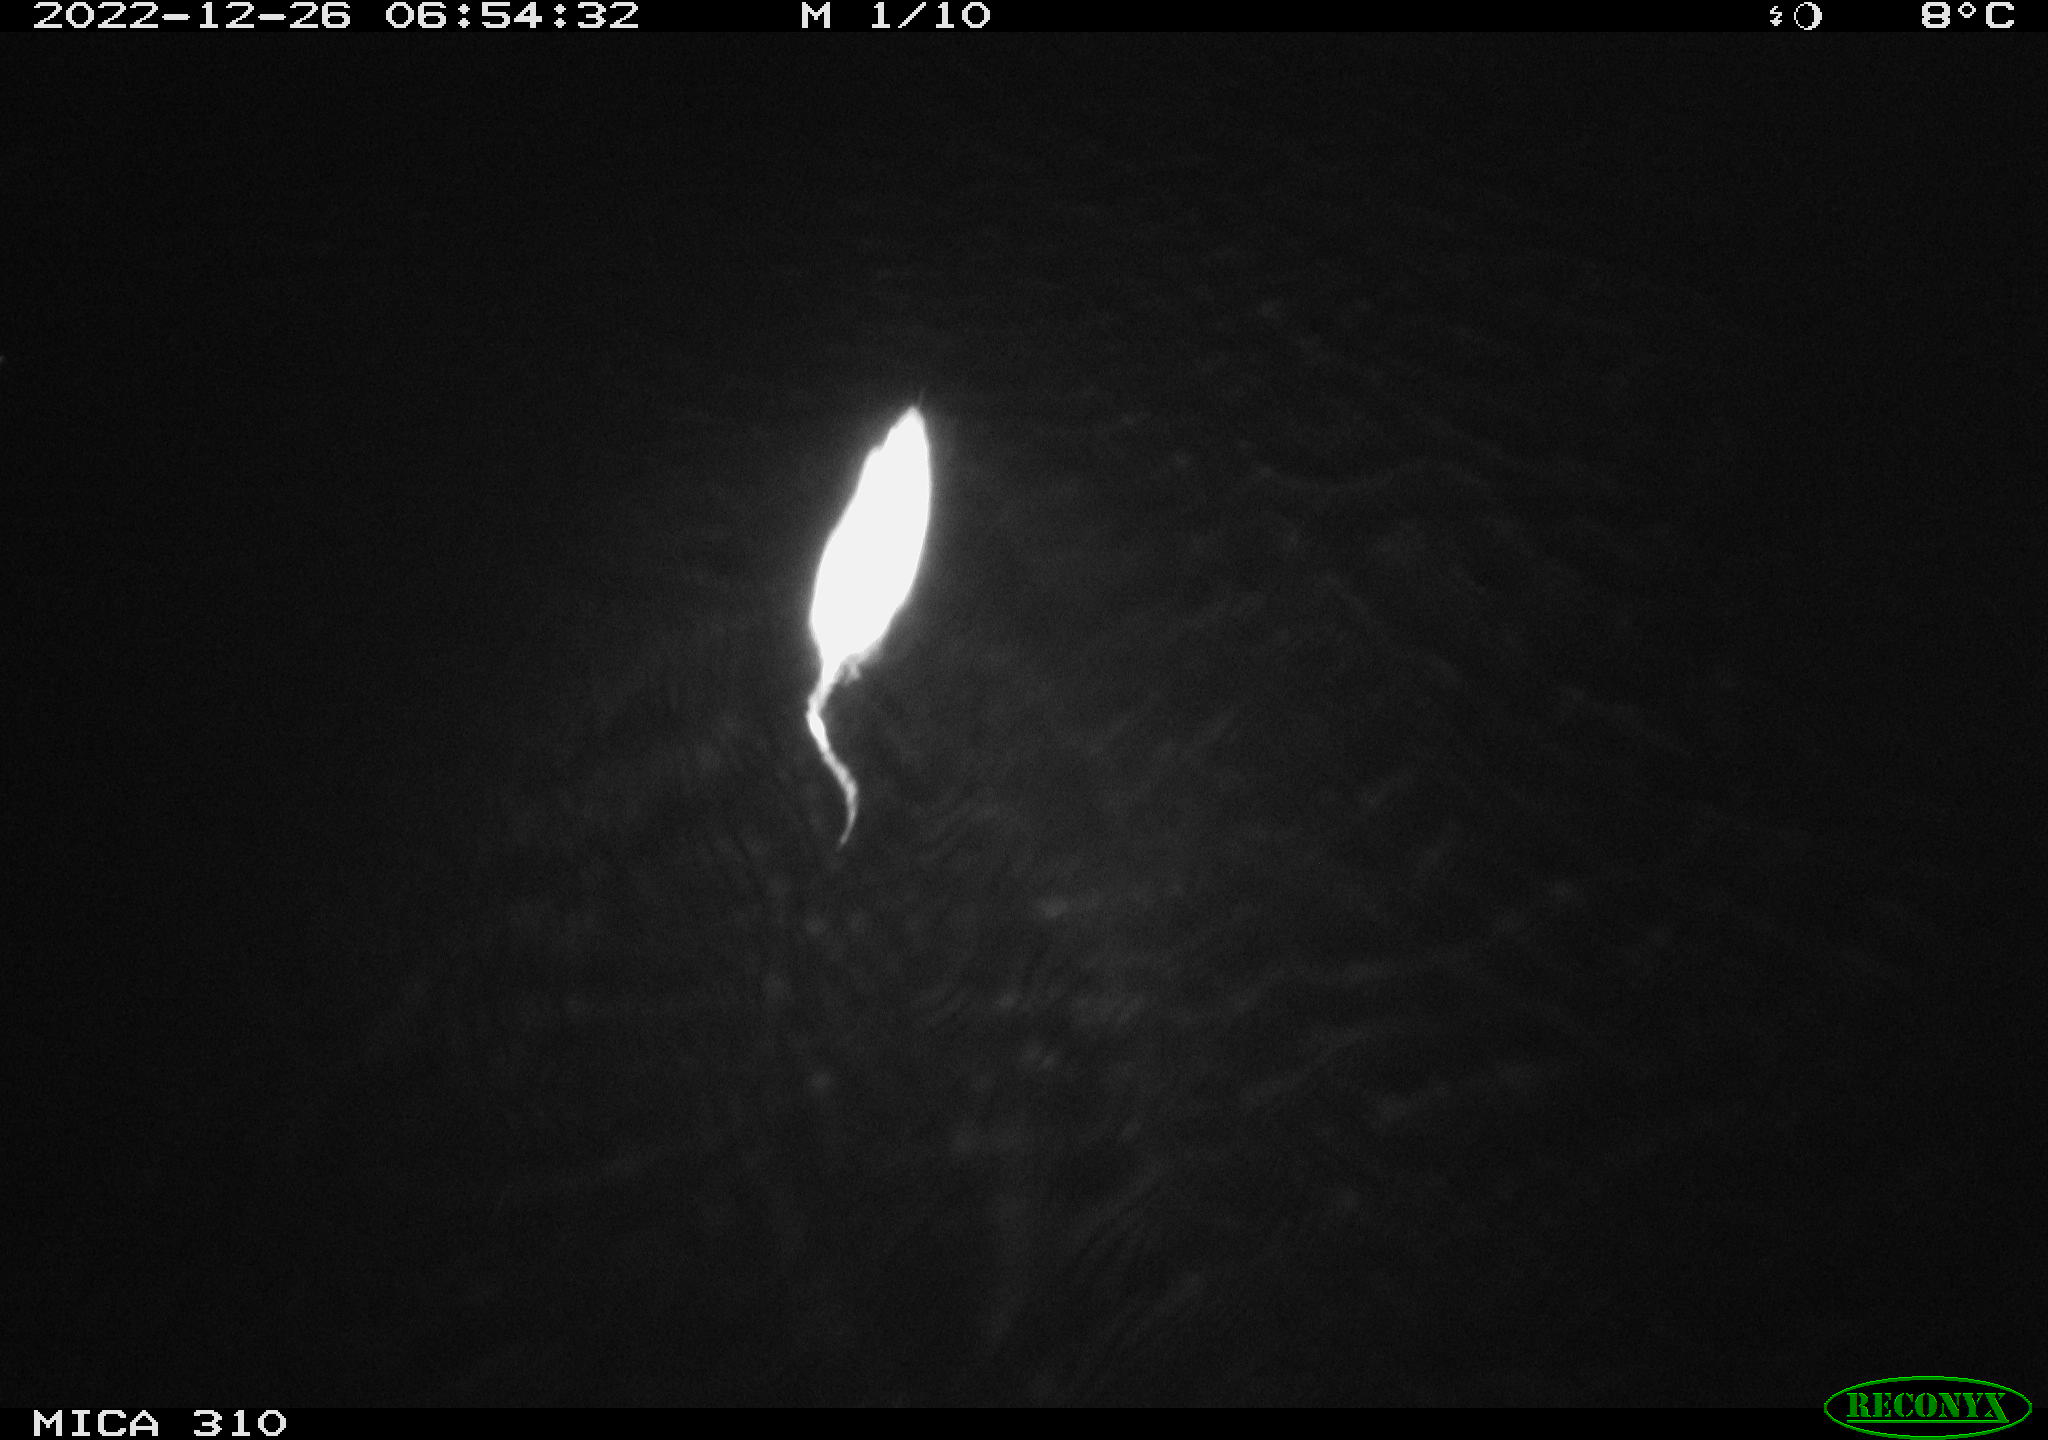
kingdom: Animalia
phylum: Chordata
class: Mammalia
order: Rodentia
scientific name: Rodentia
